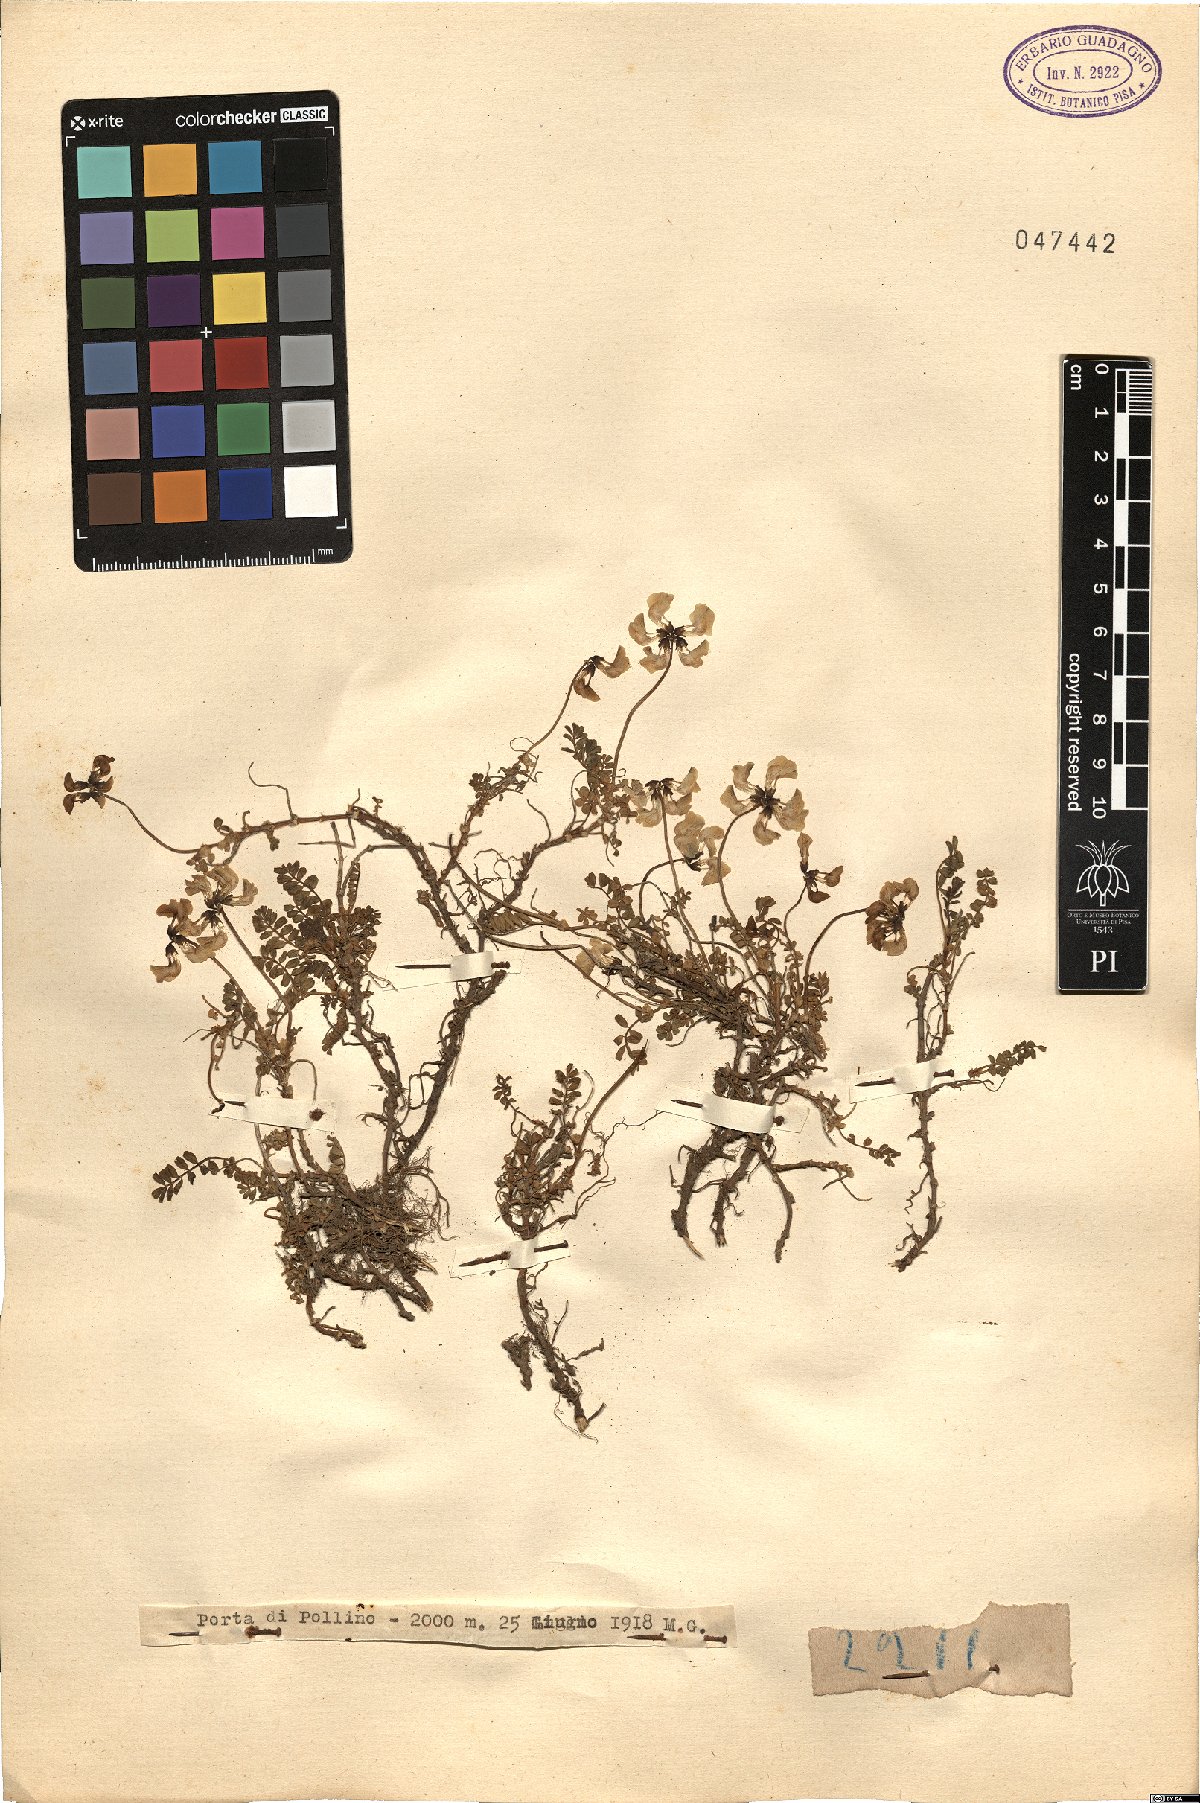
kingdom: Plantae
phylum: Tracheophyta
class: Magnoliopsida
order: Fabales
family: Fabaceae
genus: Hedysarum
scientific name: Hedysarum
